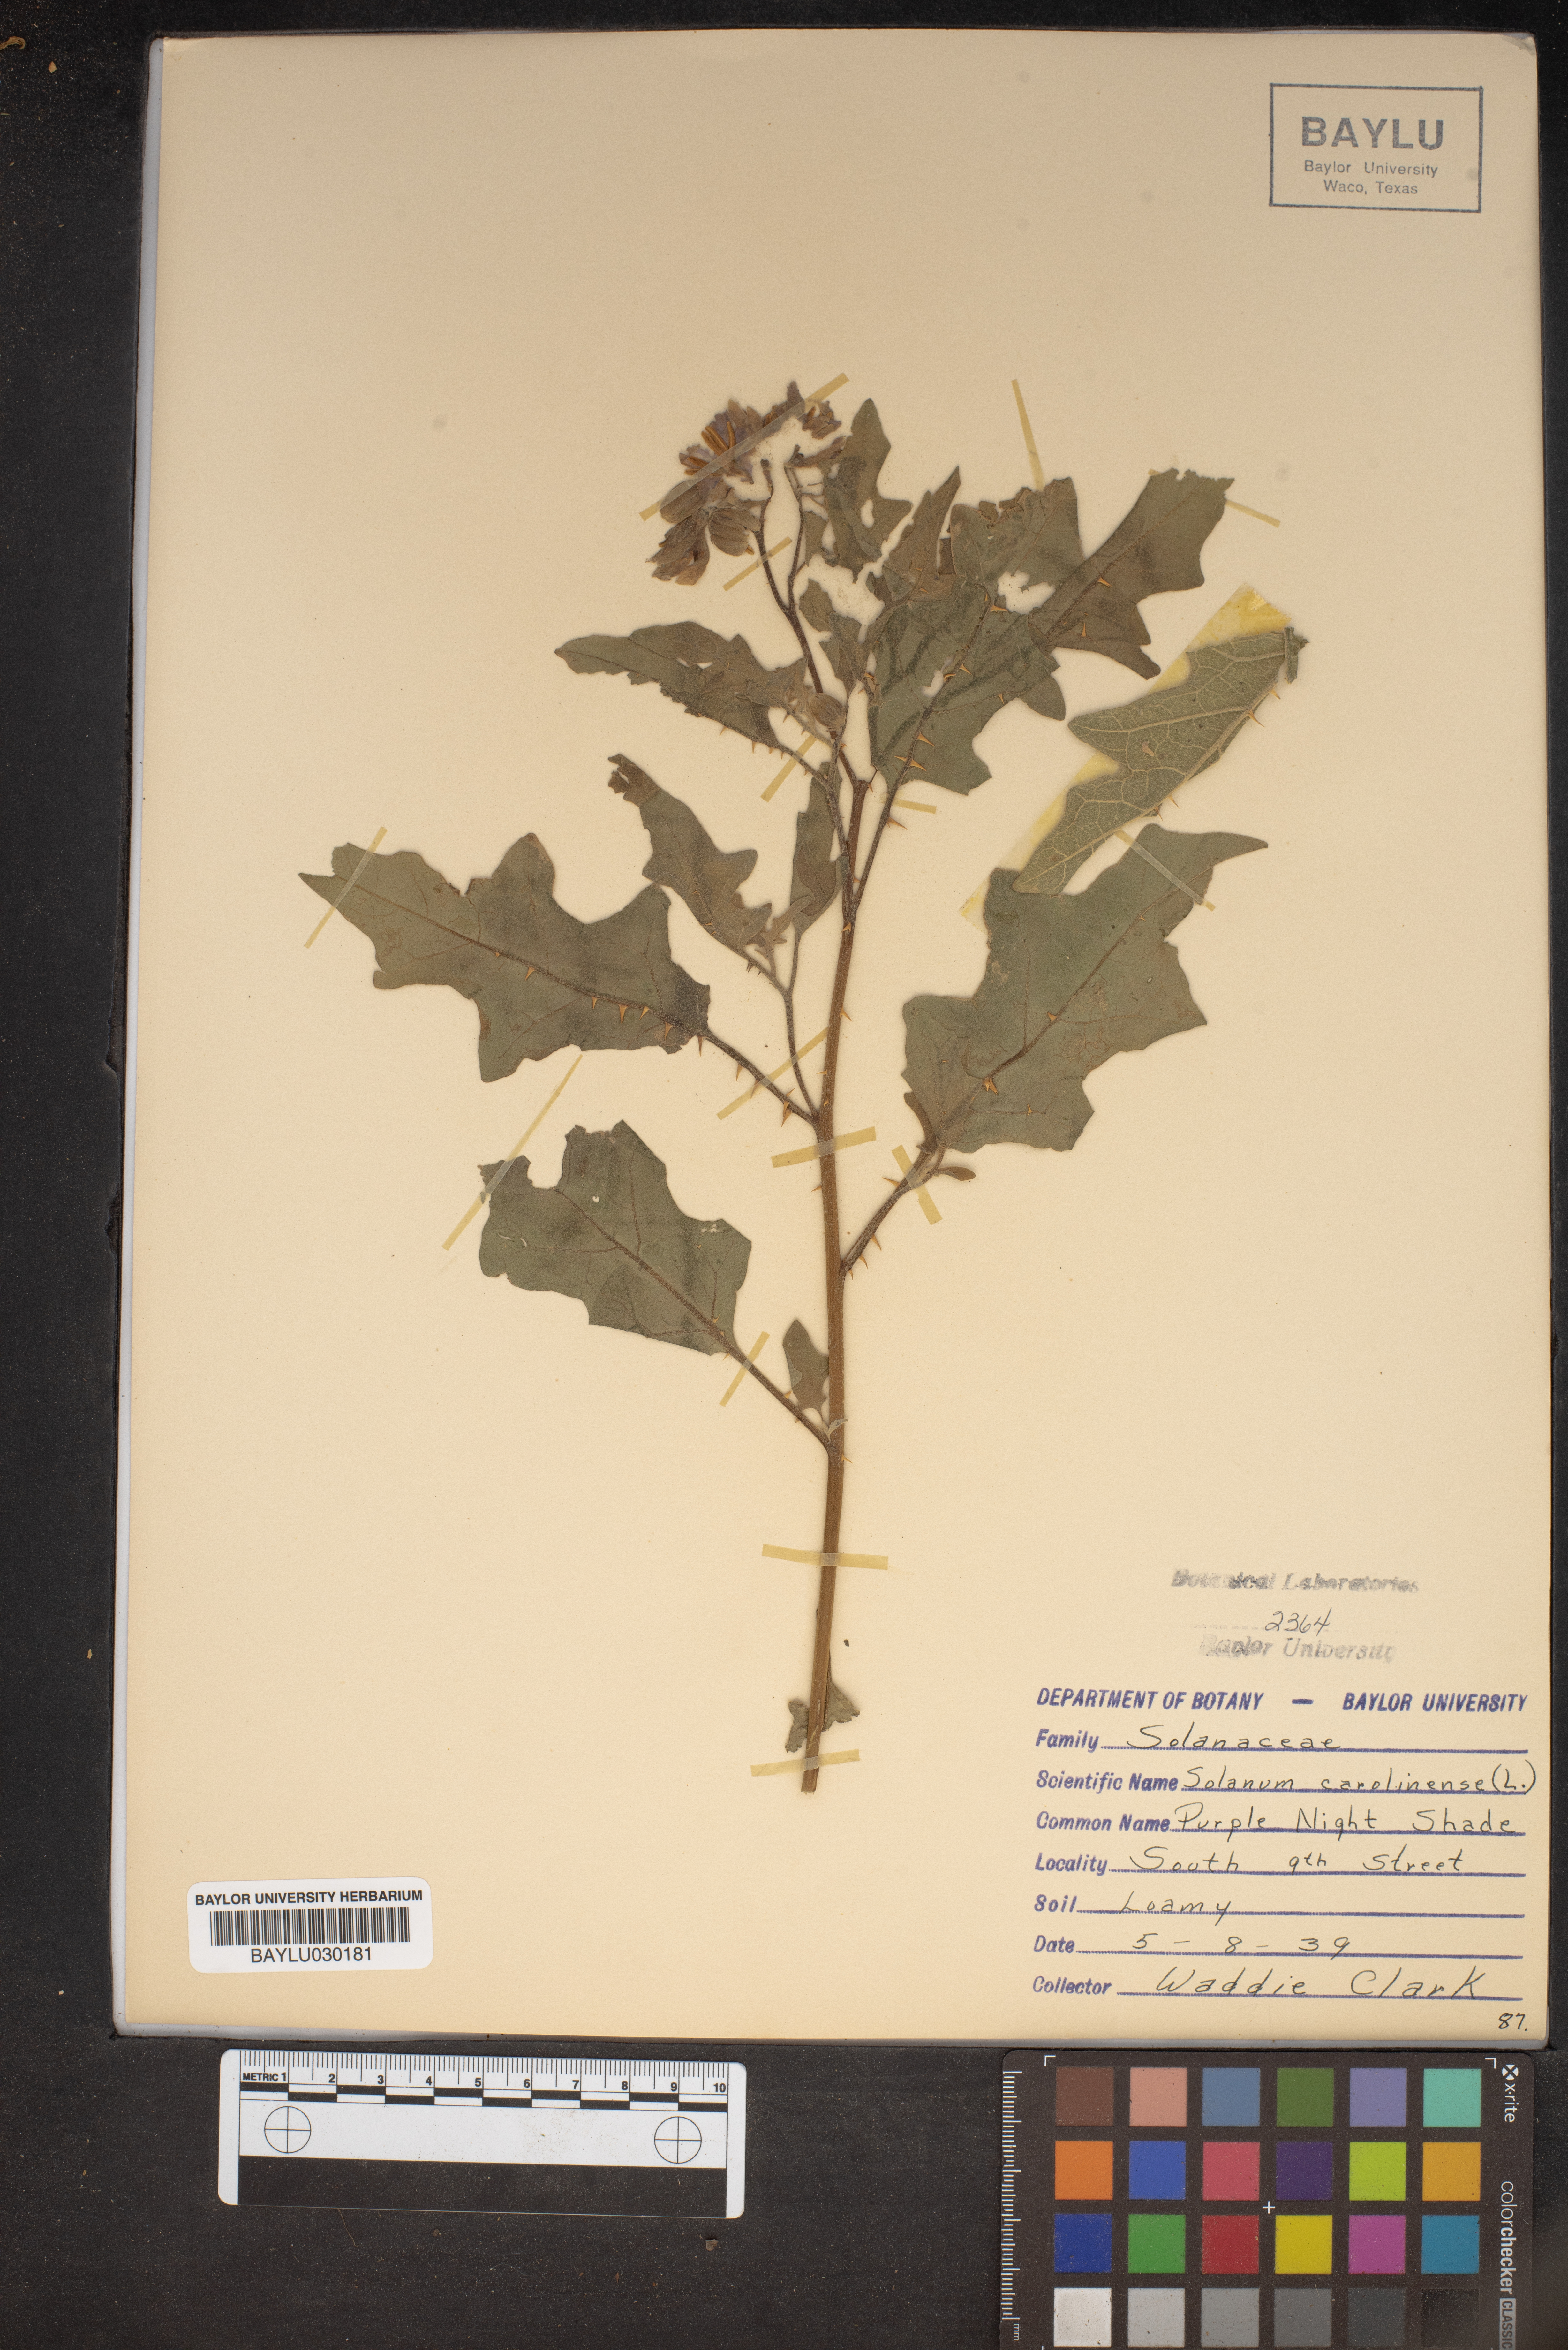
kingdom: Plantae
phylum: Tracheophyta
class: Magnoliopsida
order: Solanales
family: Solanaceae
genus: Solanum
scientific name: Solanum carolinense
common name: Horse-nettle
